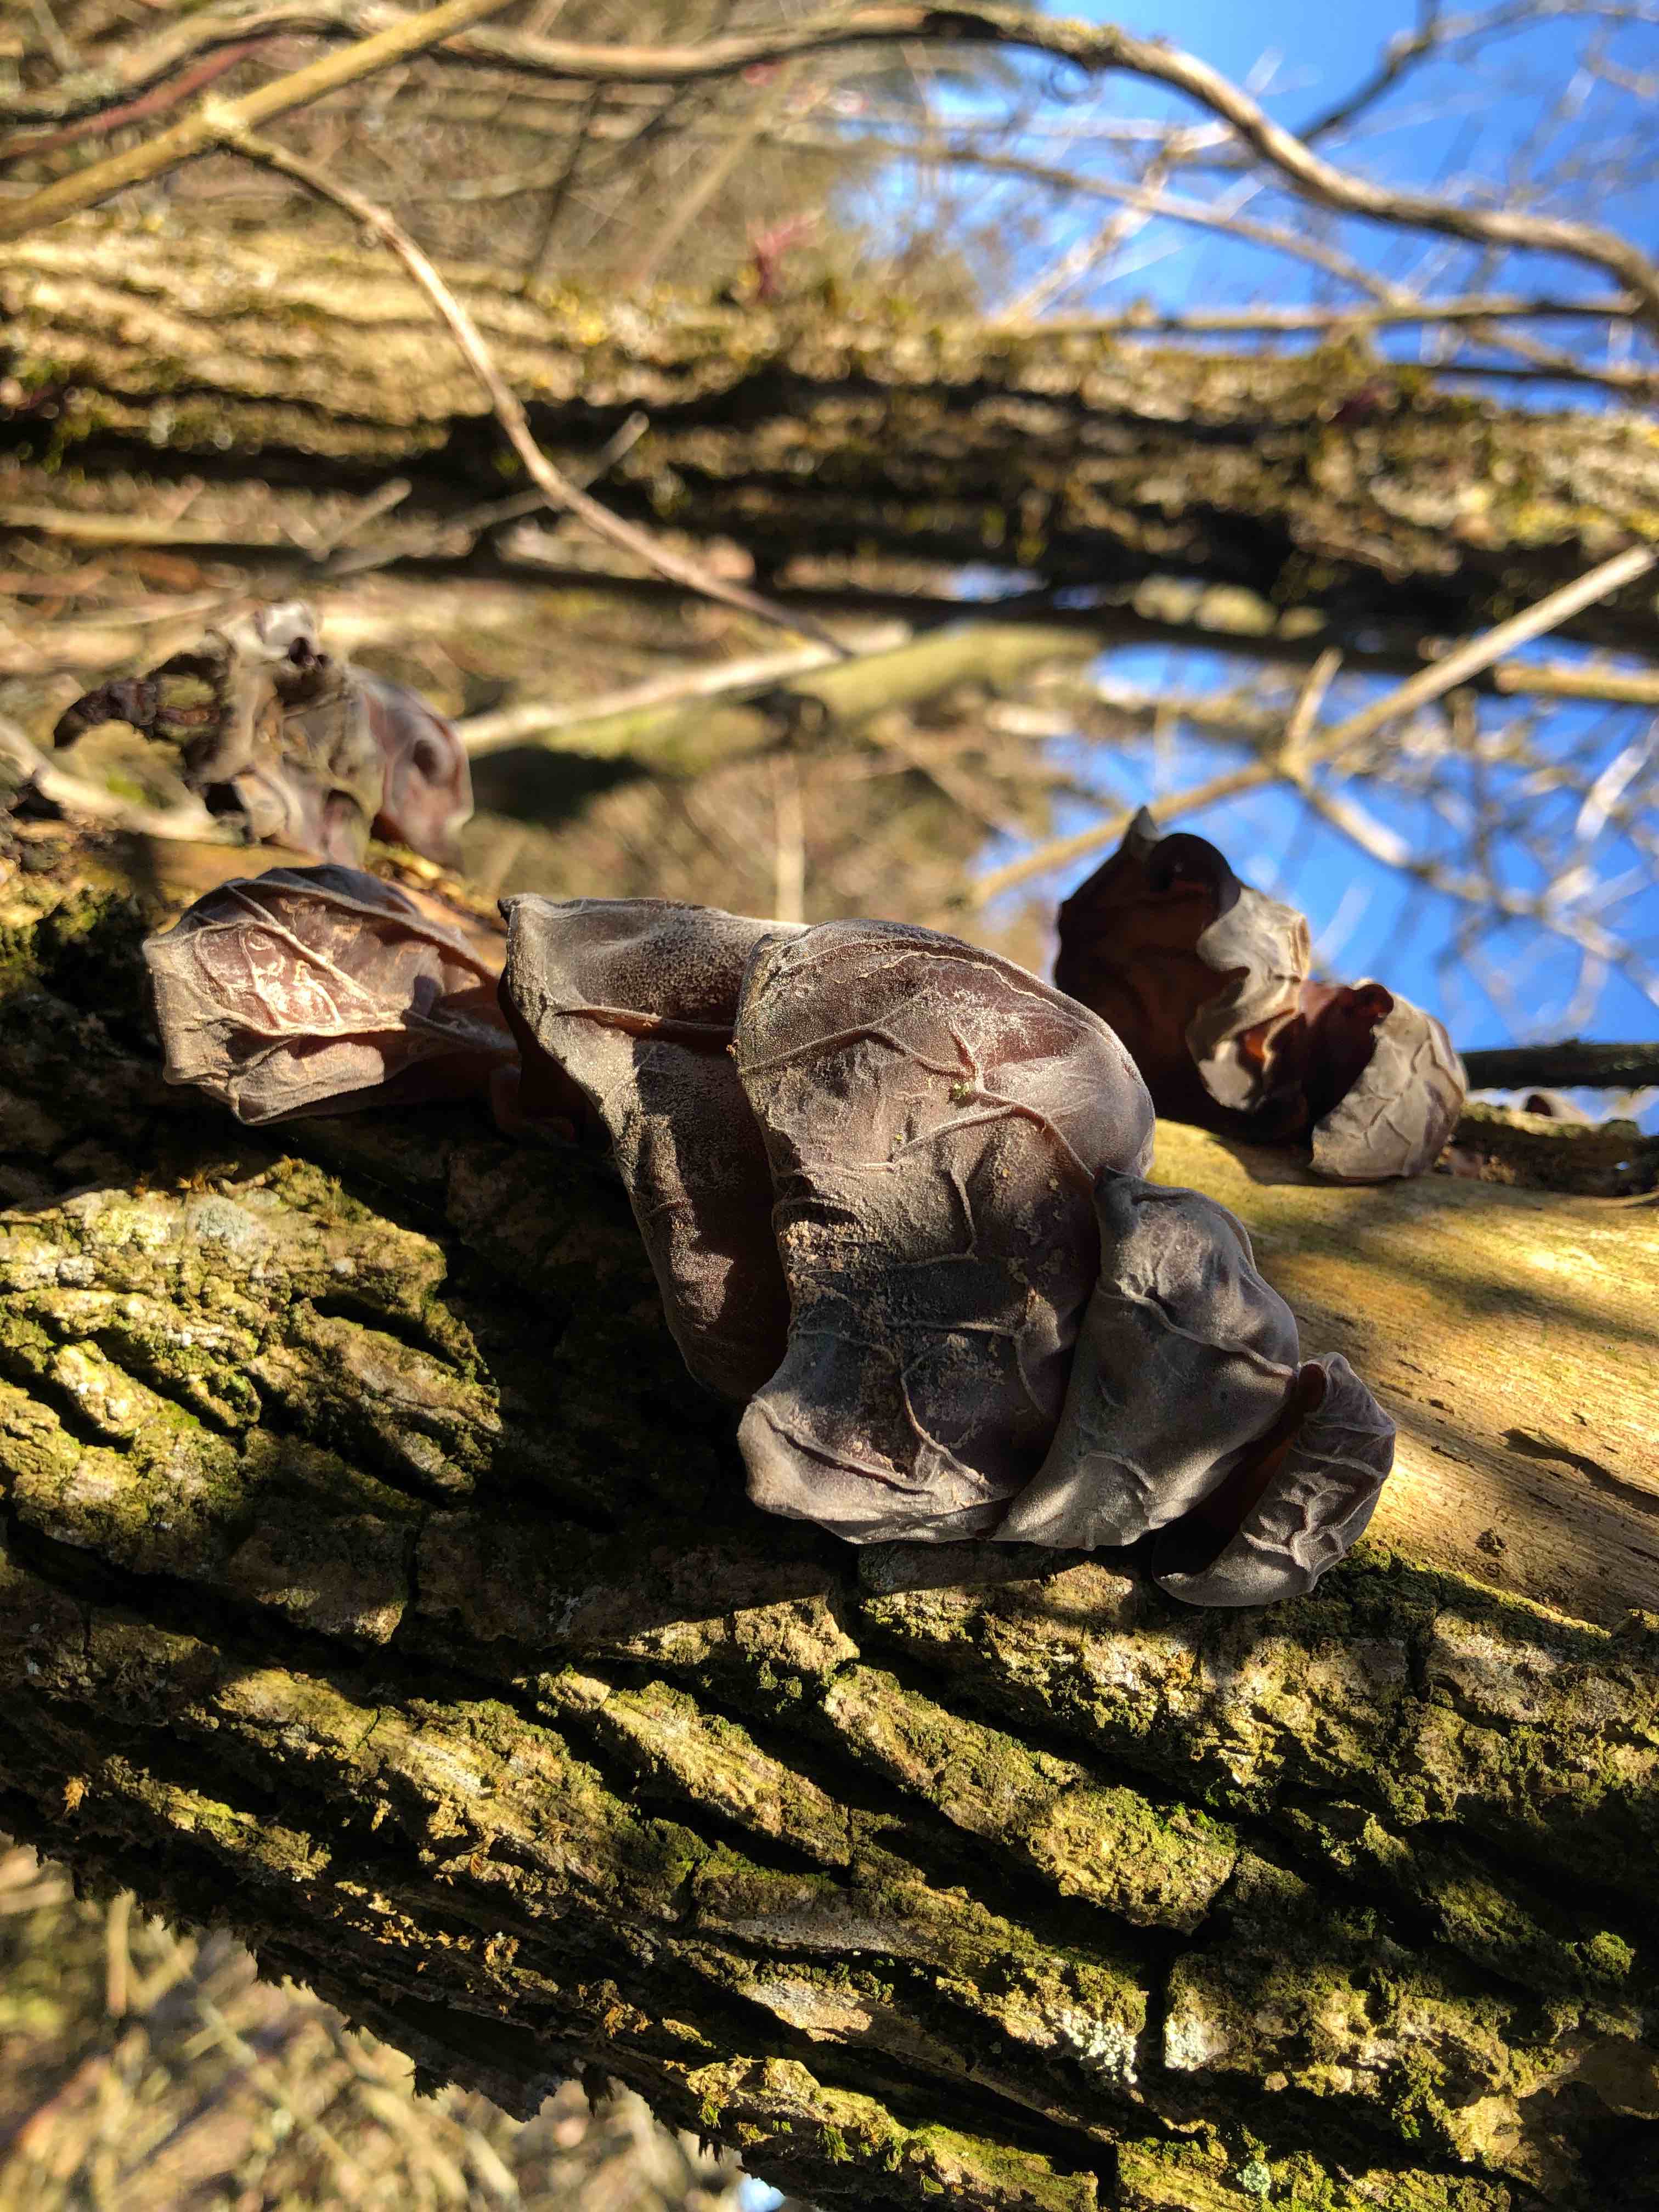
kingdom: Fungi
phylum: Basidiomycota
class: Agaricomycetes
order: Auriculariales
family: Auriculariaceae
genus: Auricularia
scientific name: Auricularia auricula-judae
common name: almindelig judasøre
